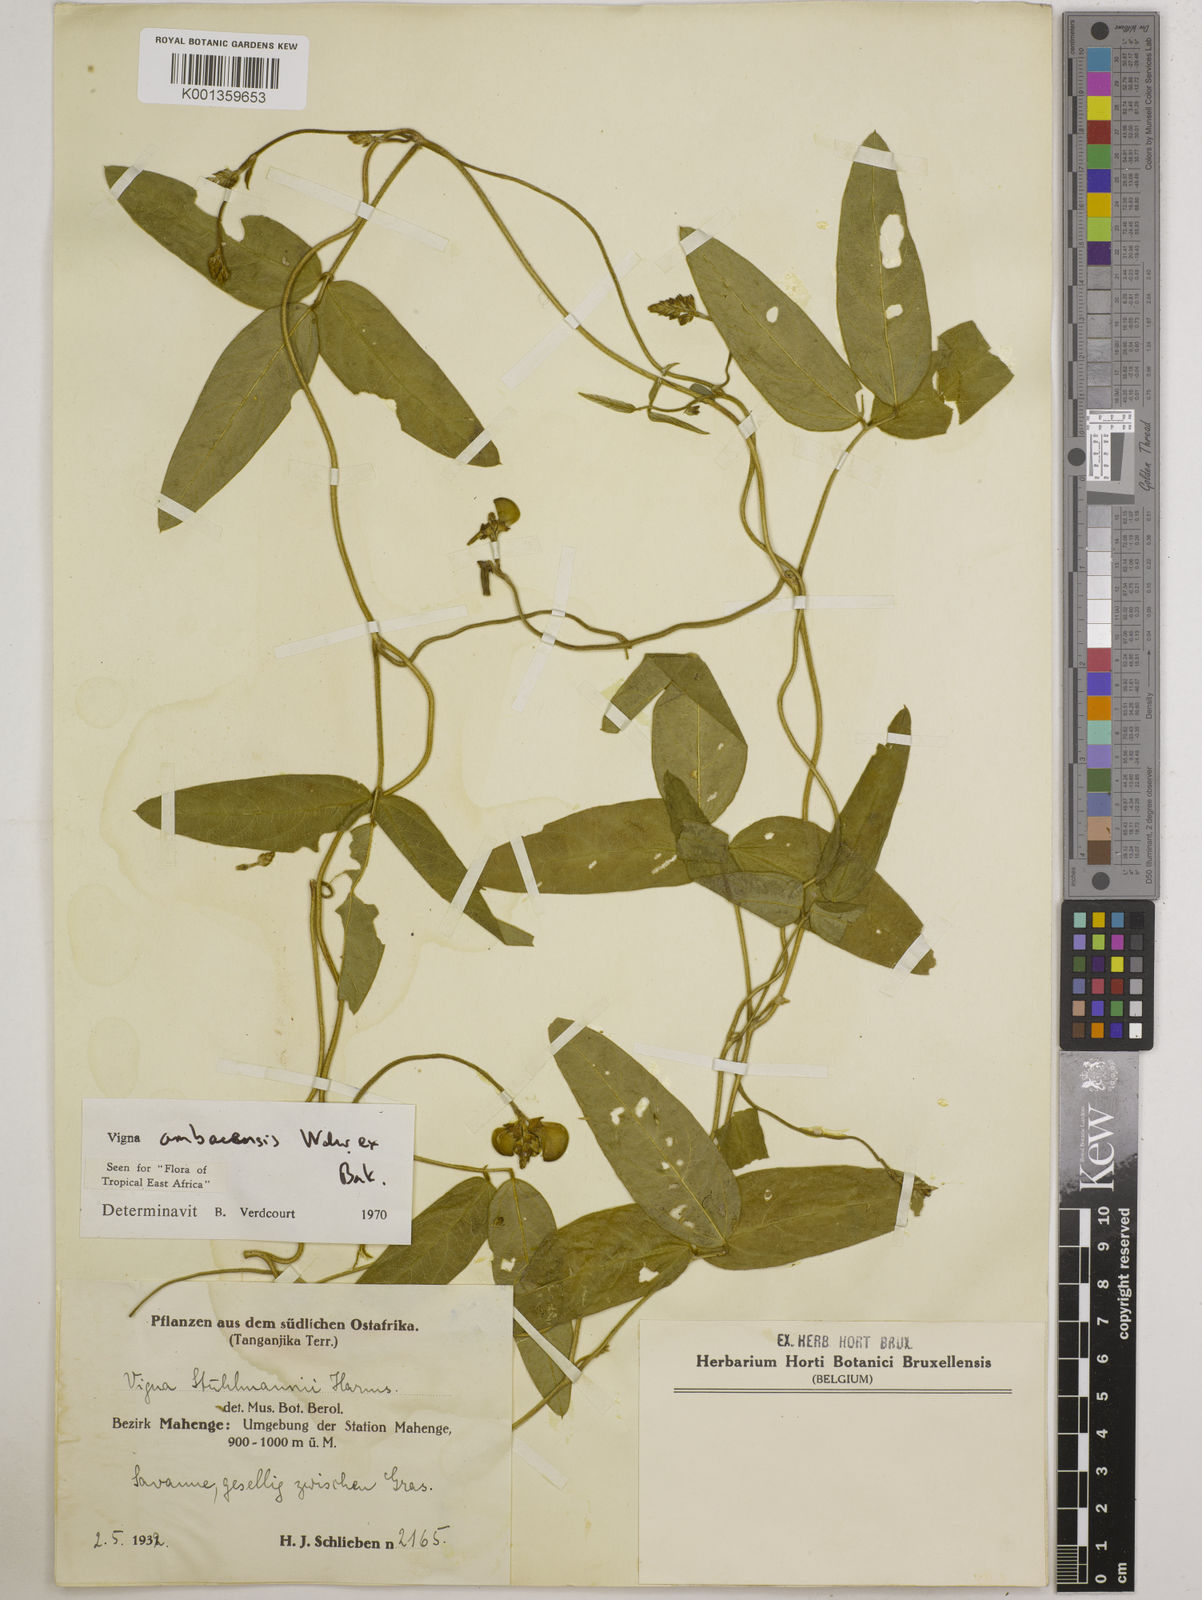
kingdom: Plantae
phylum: Tracheophyta
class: Magnoliopsida
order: Fabales
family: Fabaceae
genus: Vigna
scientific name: Vigna ambacensis
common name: Tsarkiyan zomo
